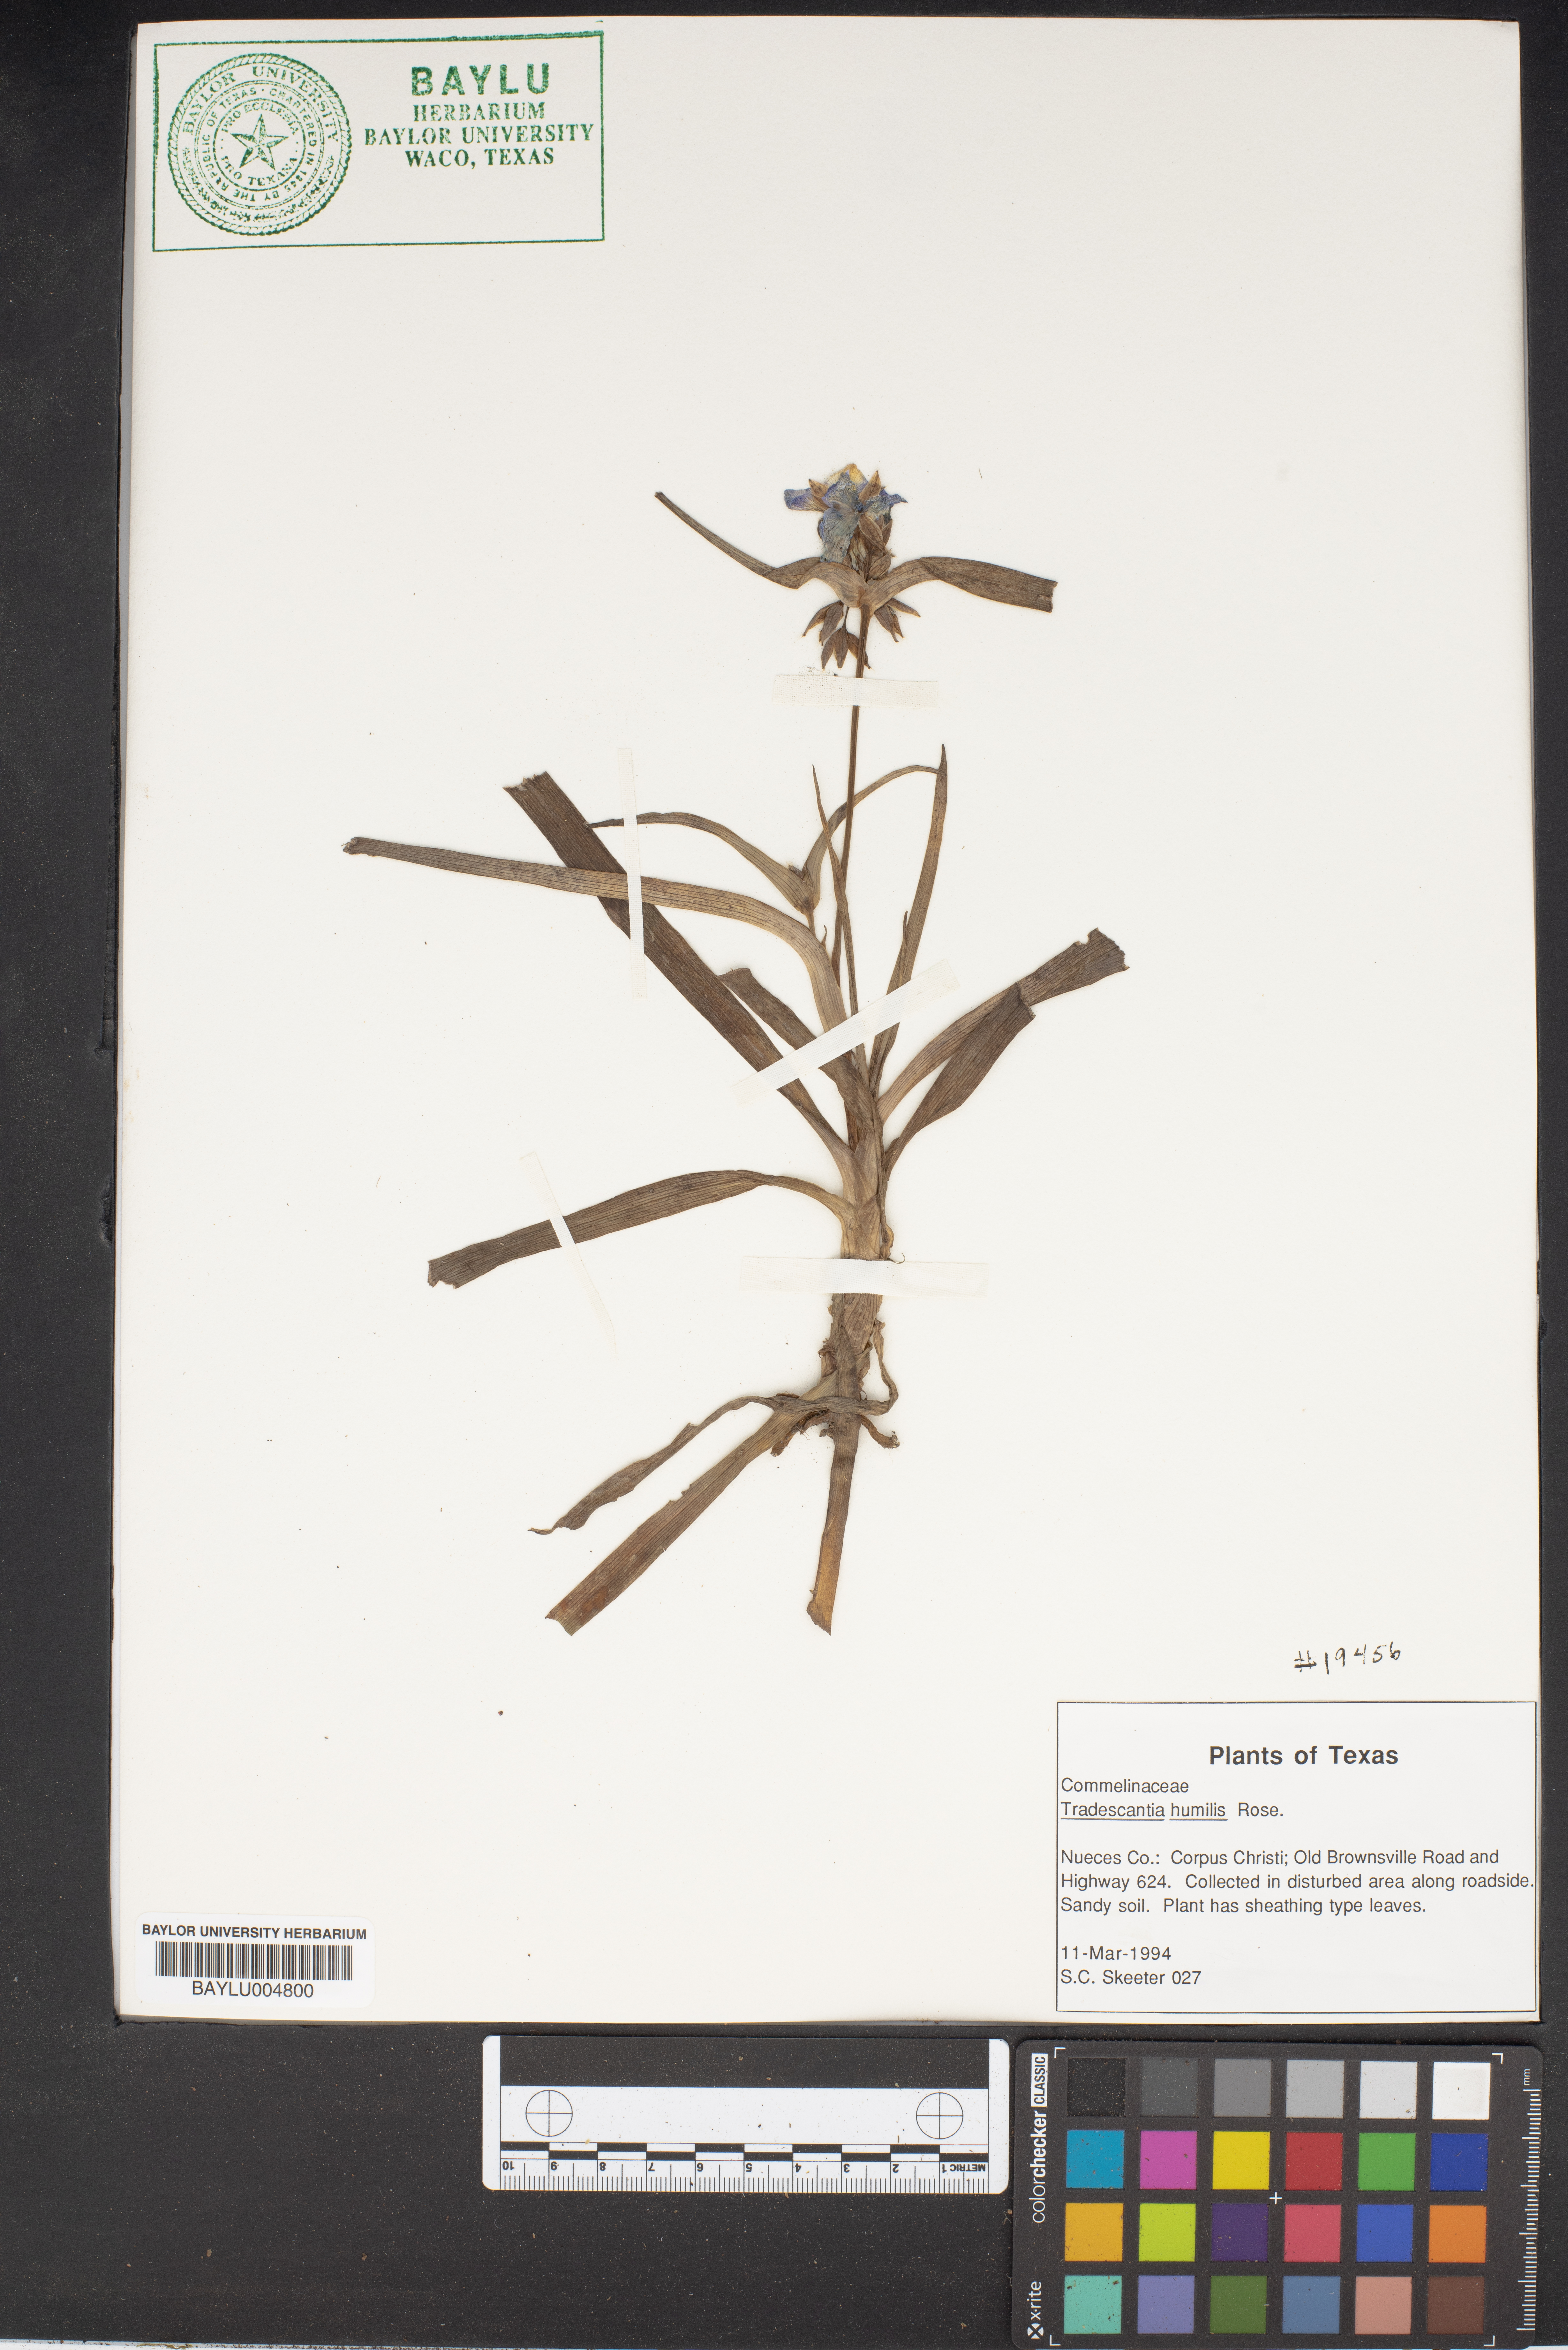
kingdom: Plantae
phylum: Tracheophyta
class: Liliopsida
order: Commelinales
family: Commelinaceae
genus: Tradescantia
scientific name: Tradescantia humilis
